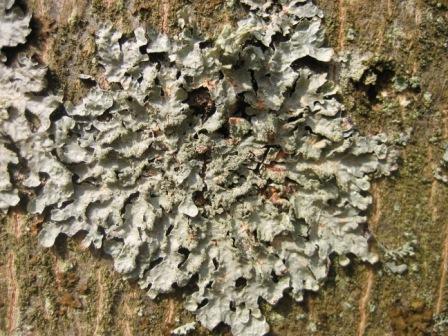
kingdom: Fungi
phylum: Ascomycota
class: Lecanoromycetes
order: Lecanorales
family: Parmeliaceae
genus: Parmelia
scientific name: Parmelia sulcata
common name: rynket skållav
